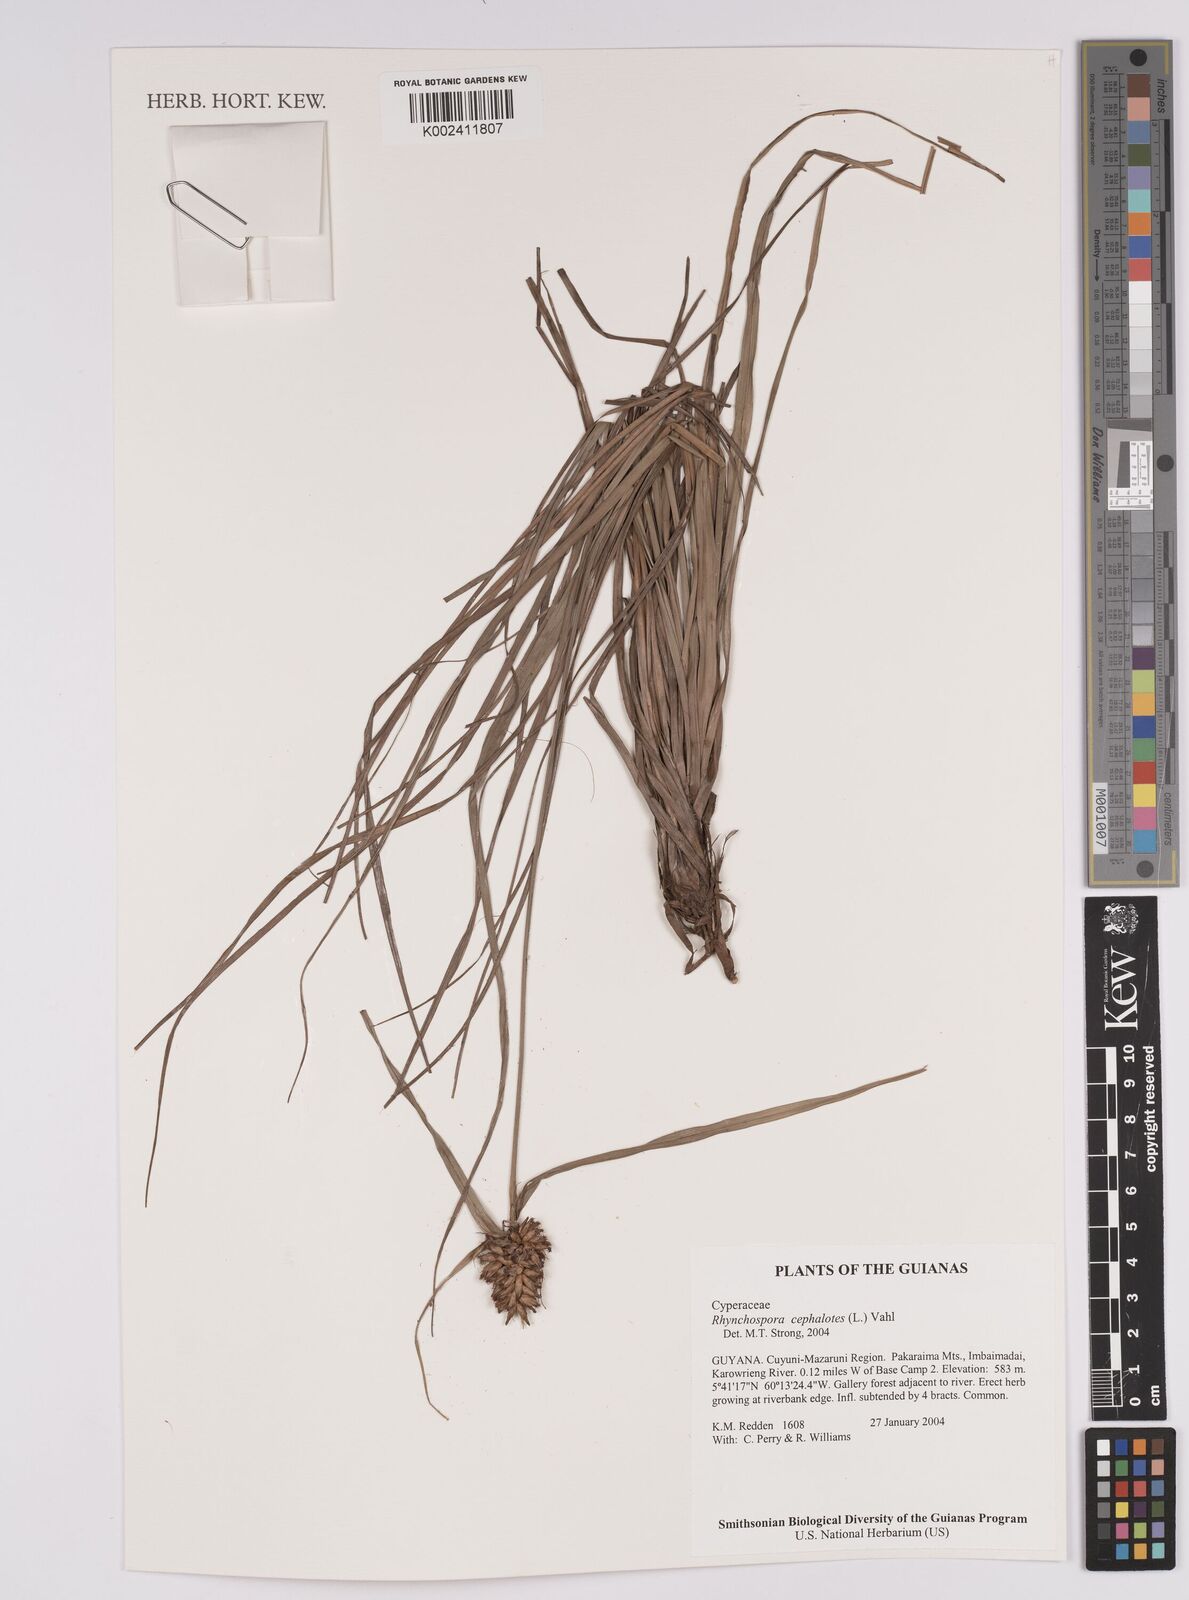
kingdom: Plantae
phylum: Tracheophyta
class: Liliopsida
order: Poales
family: Cyperaceae
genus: Rhynchospora
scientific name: Rhynchospora cephalotes
